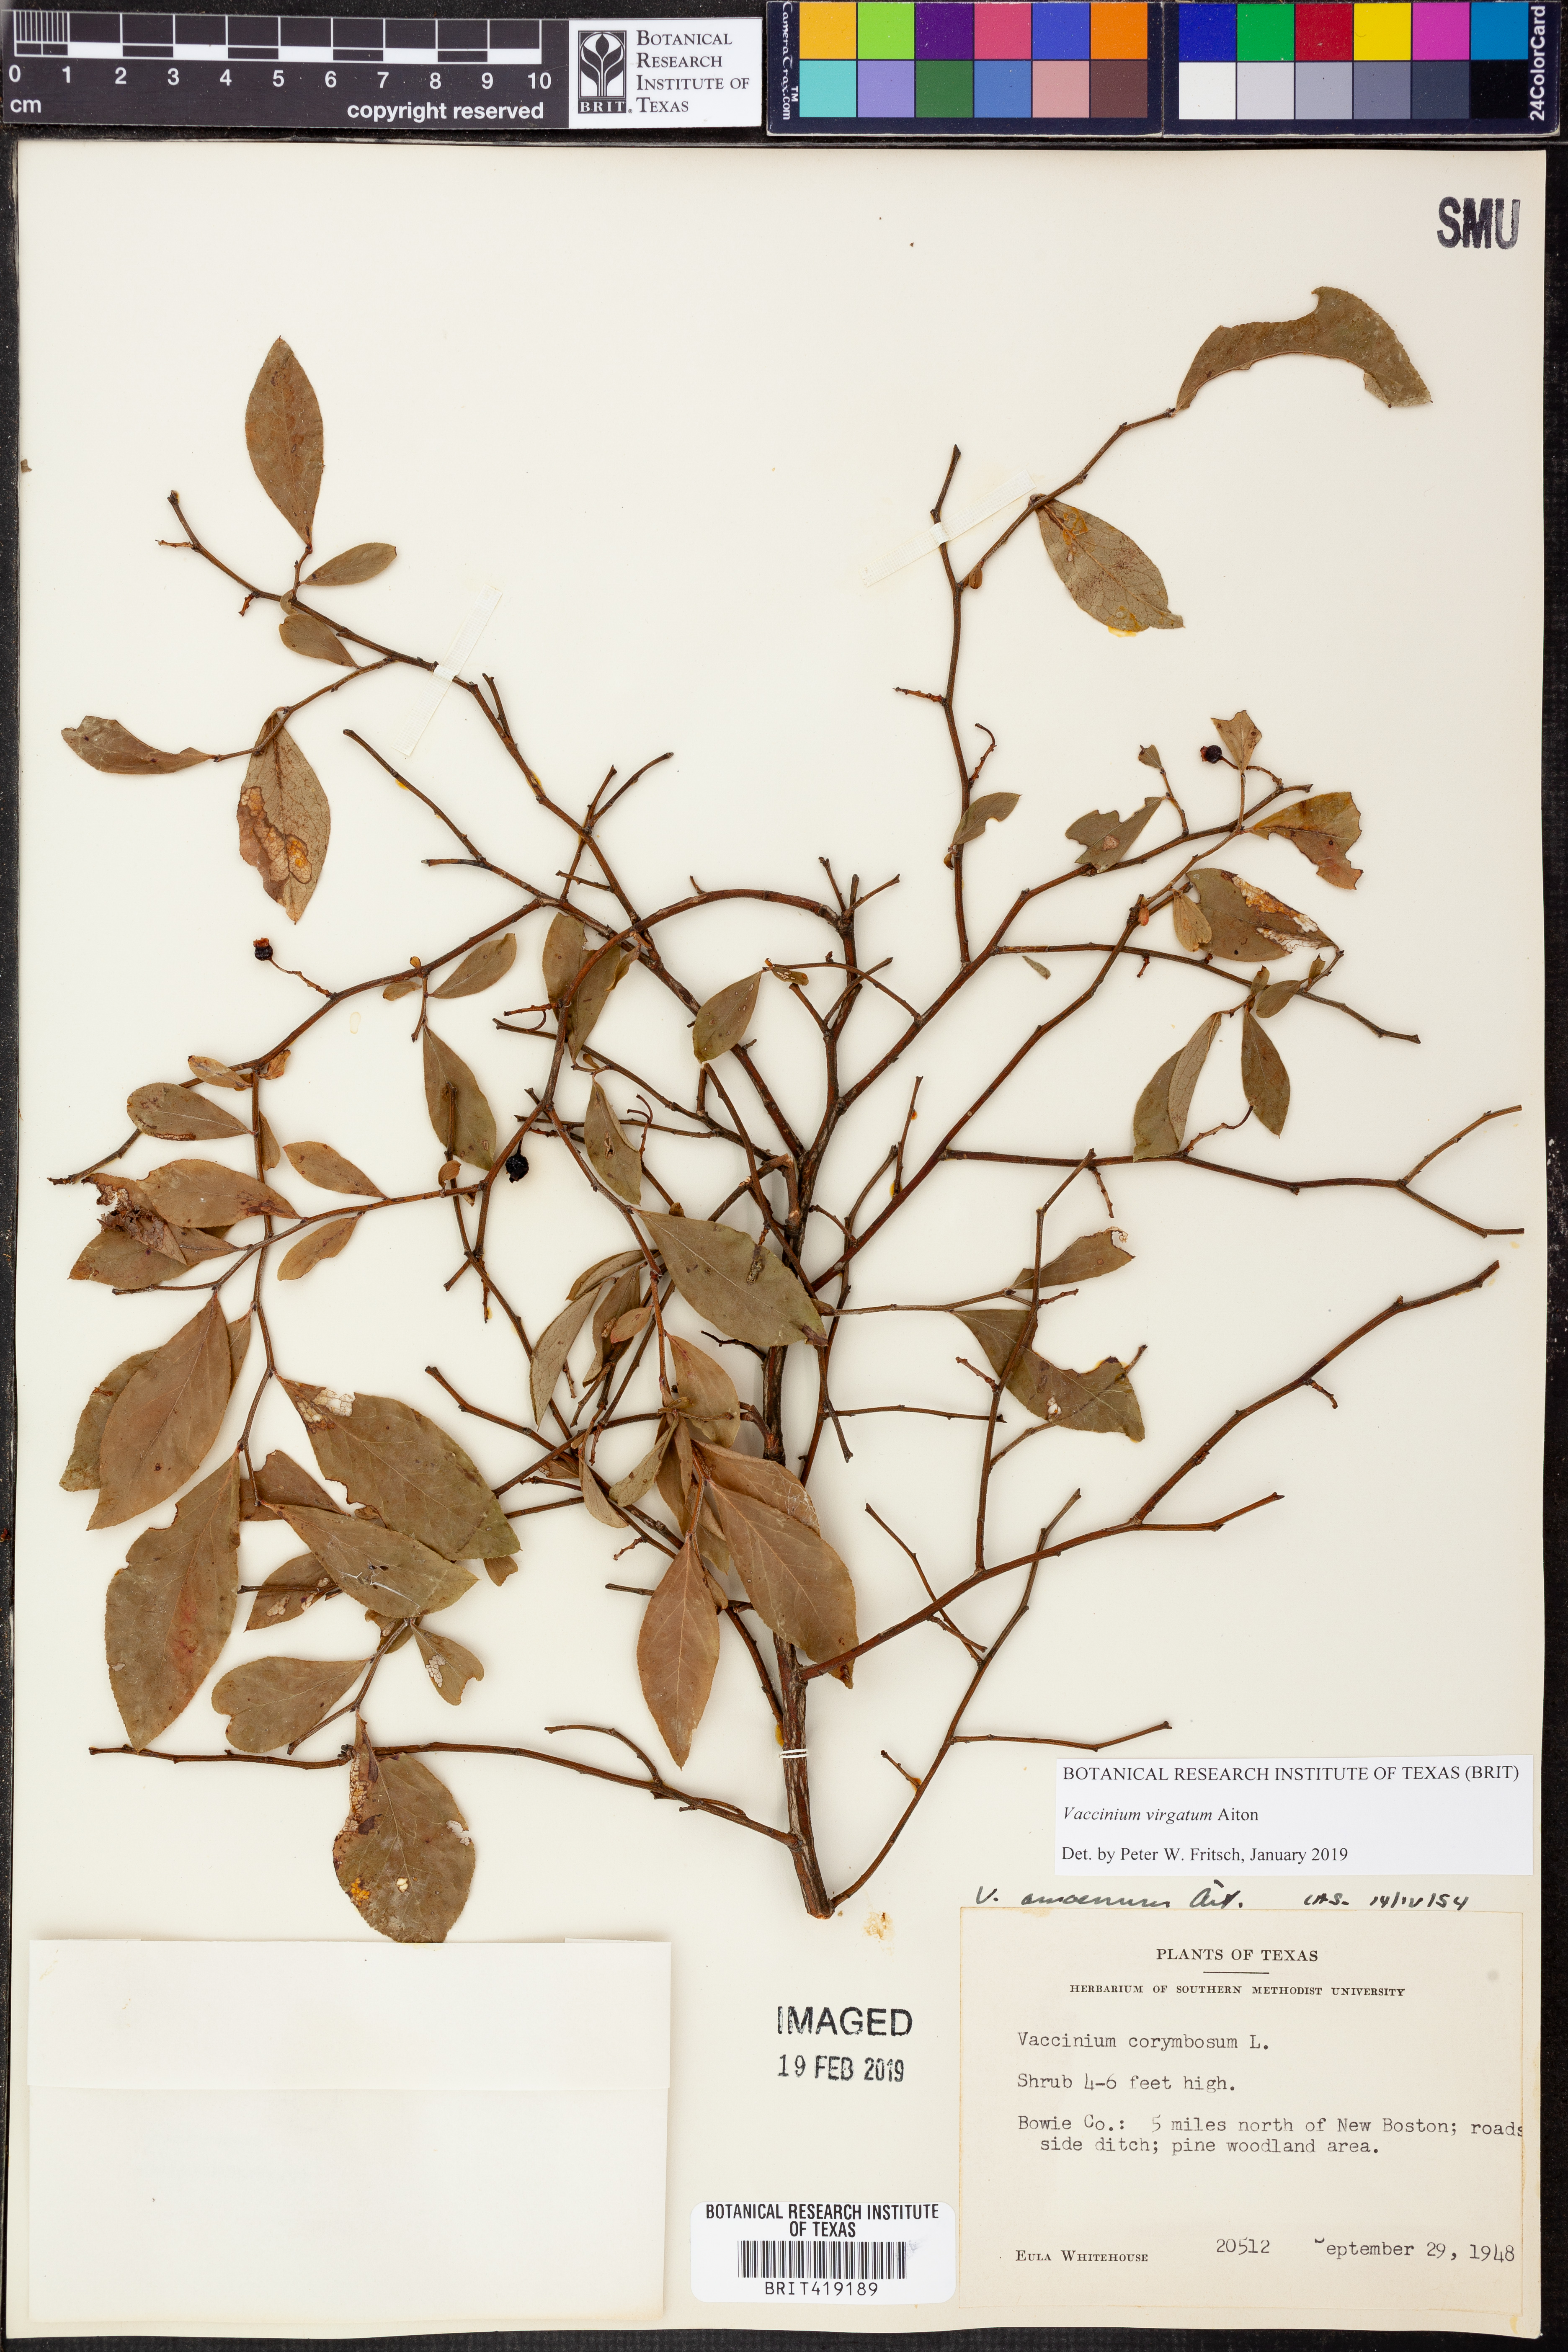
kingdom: Plantae
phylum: Tracheophyta
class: Magnoliopsida
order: Ericales
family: Ericaceae
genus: Vaccinium
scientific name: Vaccinium corymbosum
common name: Blueberry
